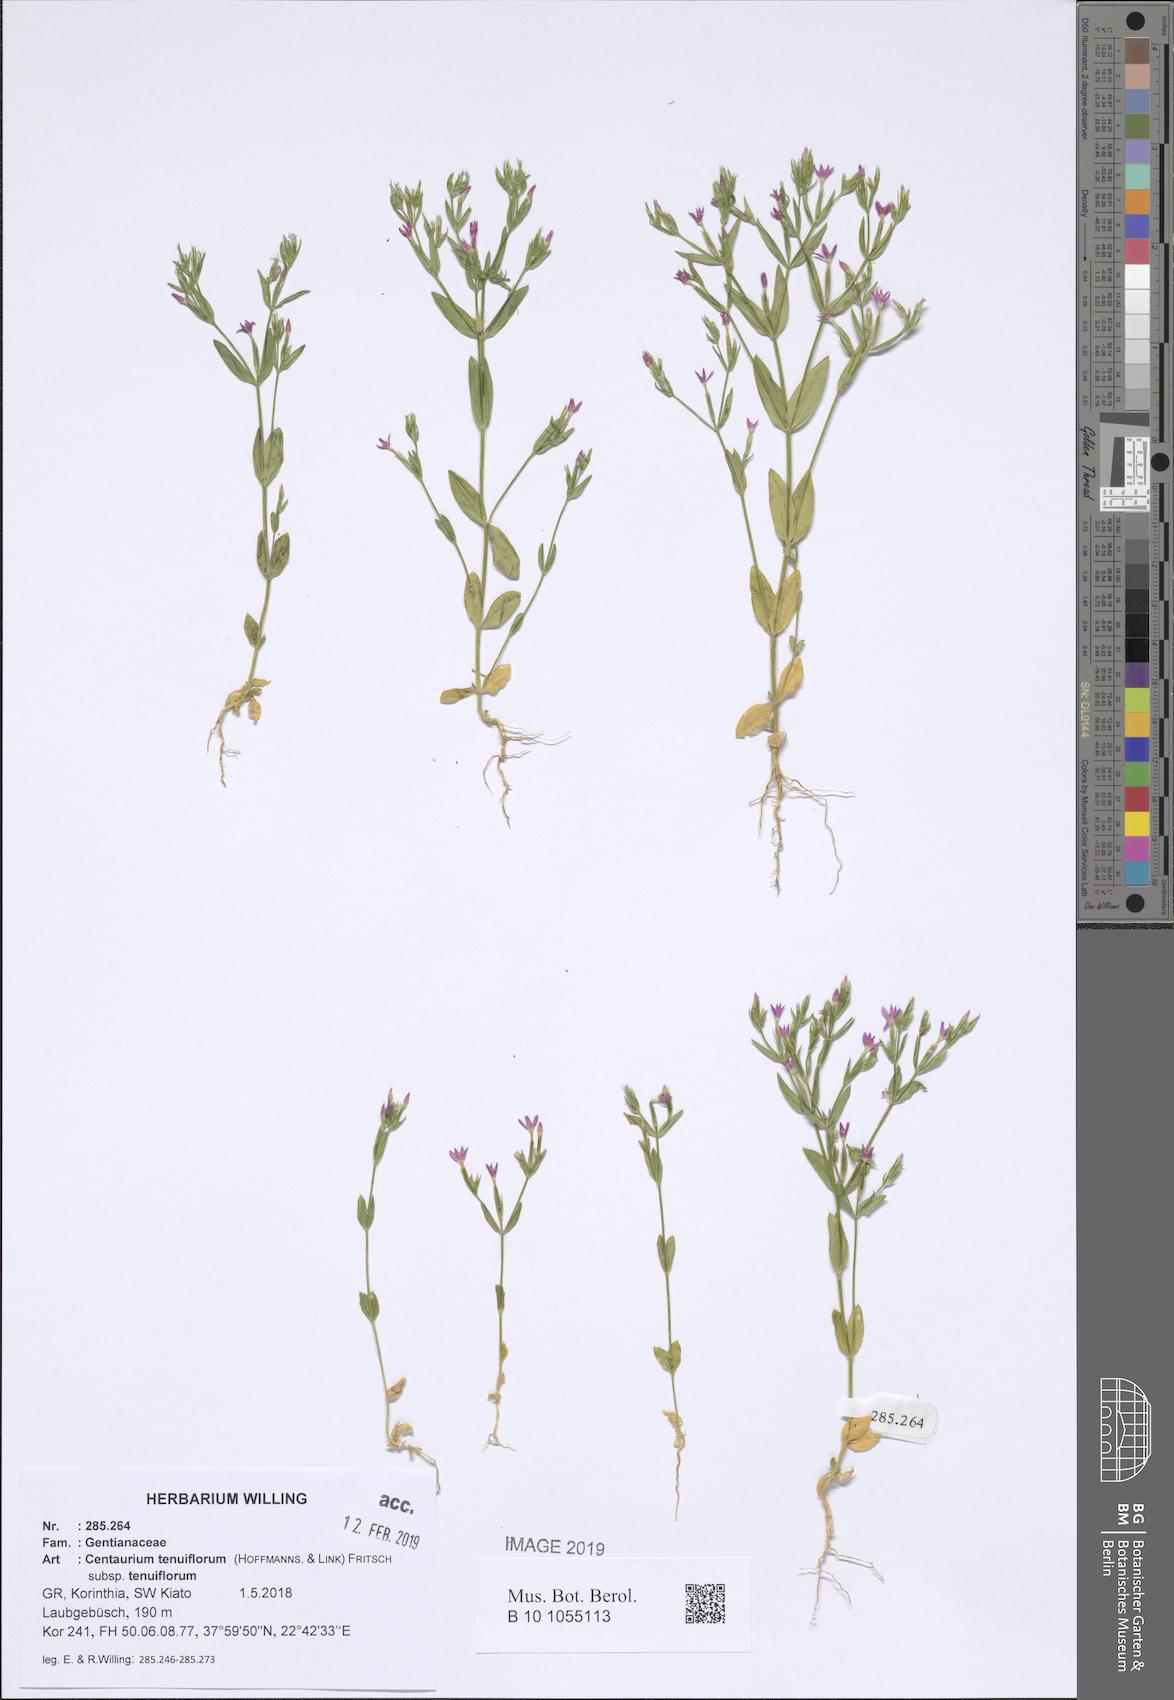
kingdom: Plantae
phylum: Tracheophyta
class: Magnoliopsida
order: Gentianales
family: Gentianaceae
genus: Centaurium
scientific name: Centaurium tenuiflorum
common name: Slender centaury
